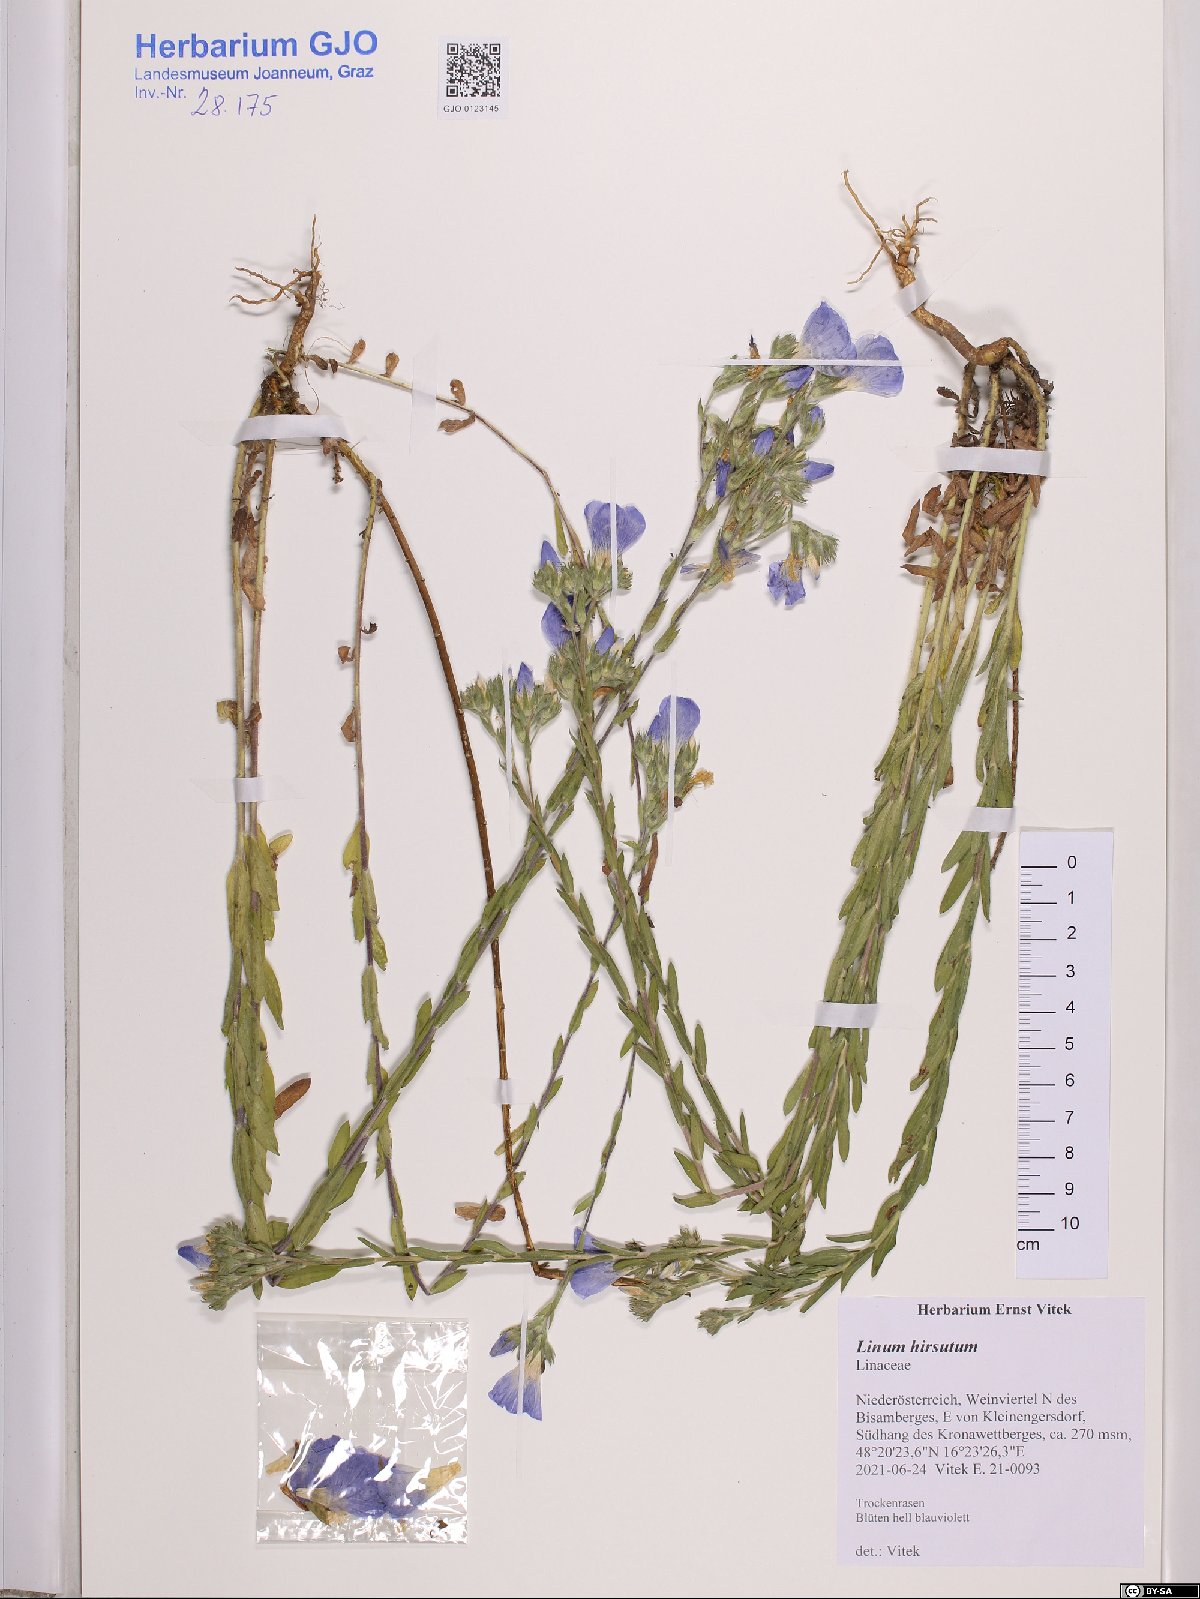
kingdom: Plantae
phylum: Tracheophyta
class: Magnoliopsida
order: Malpighiales
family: Linaceae
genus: Linum
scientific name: Linum hirsutum
